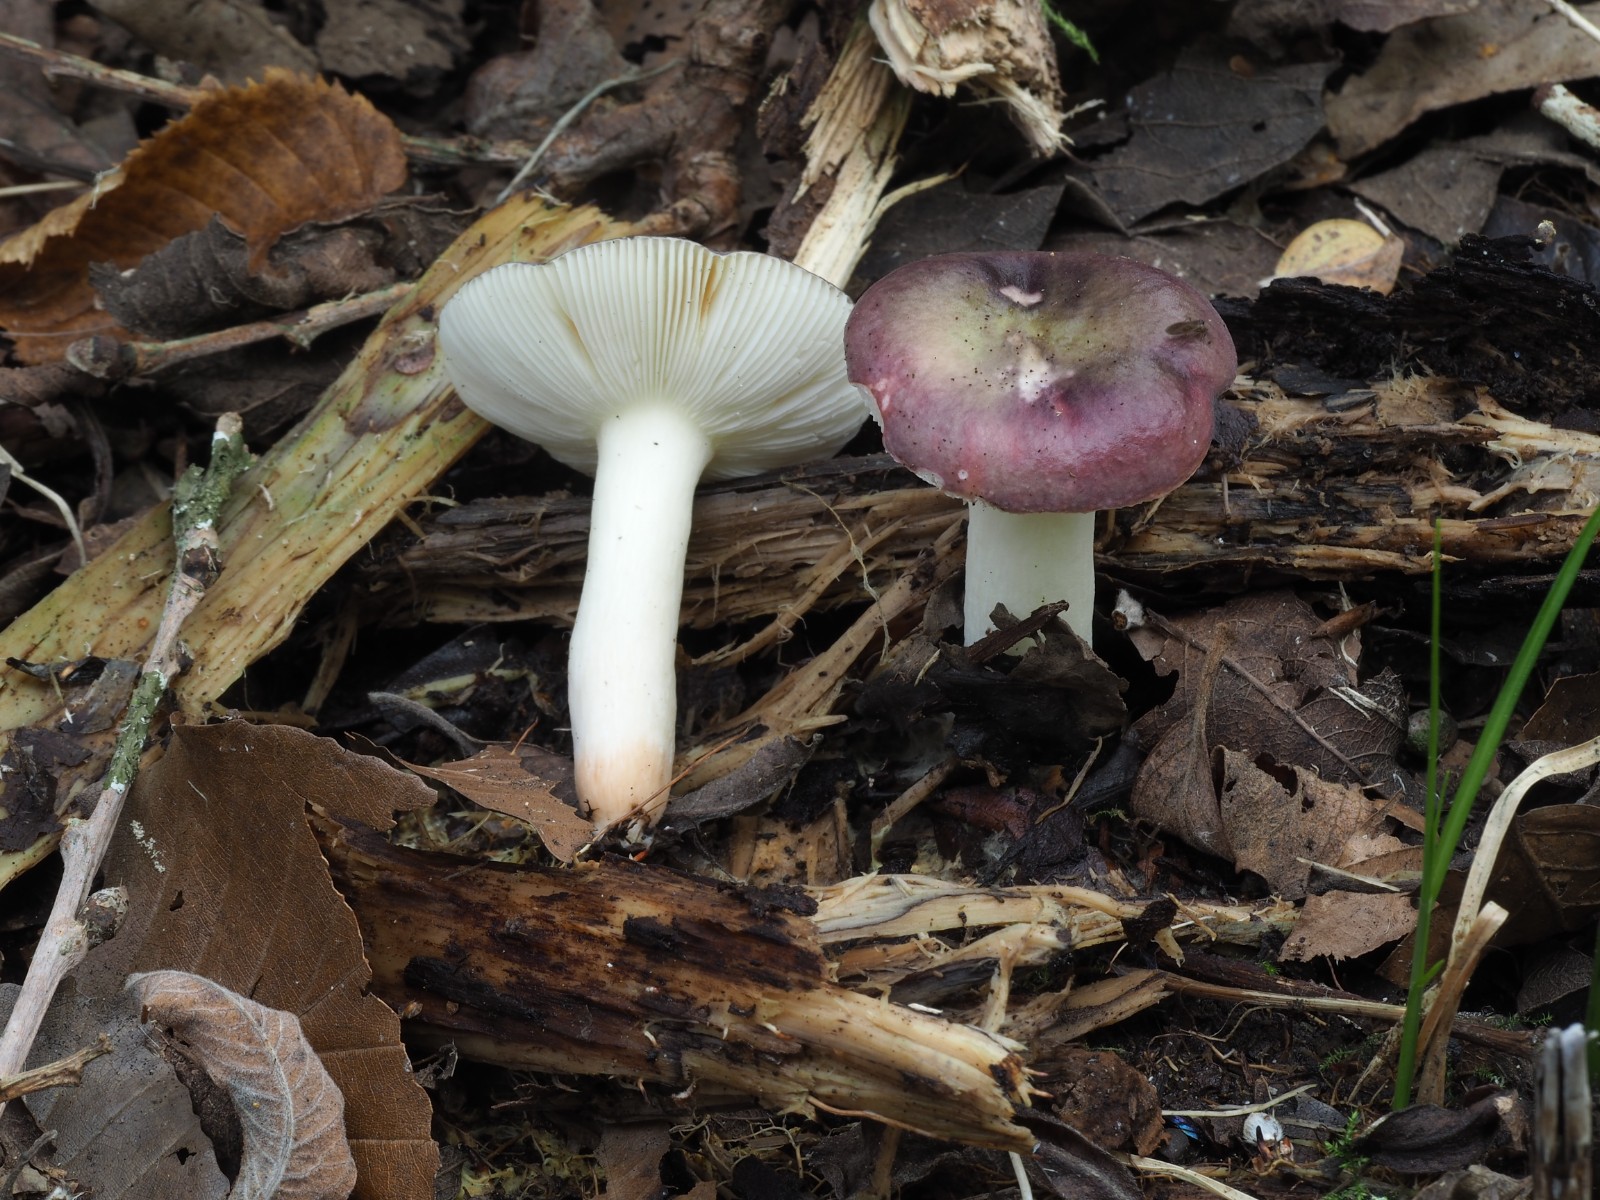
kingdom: Fungi
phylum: Basidiomycota
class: Agaricomycetes
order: Russulales
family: Russulaceae
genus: Russula
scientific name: Russula laccata
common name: klit-skørhat
